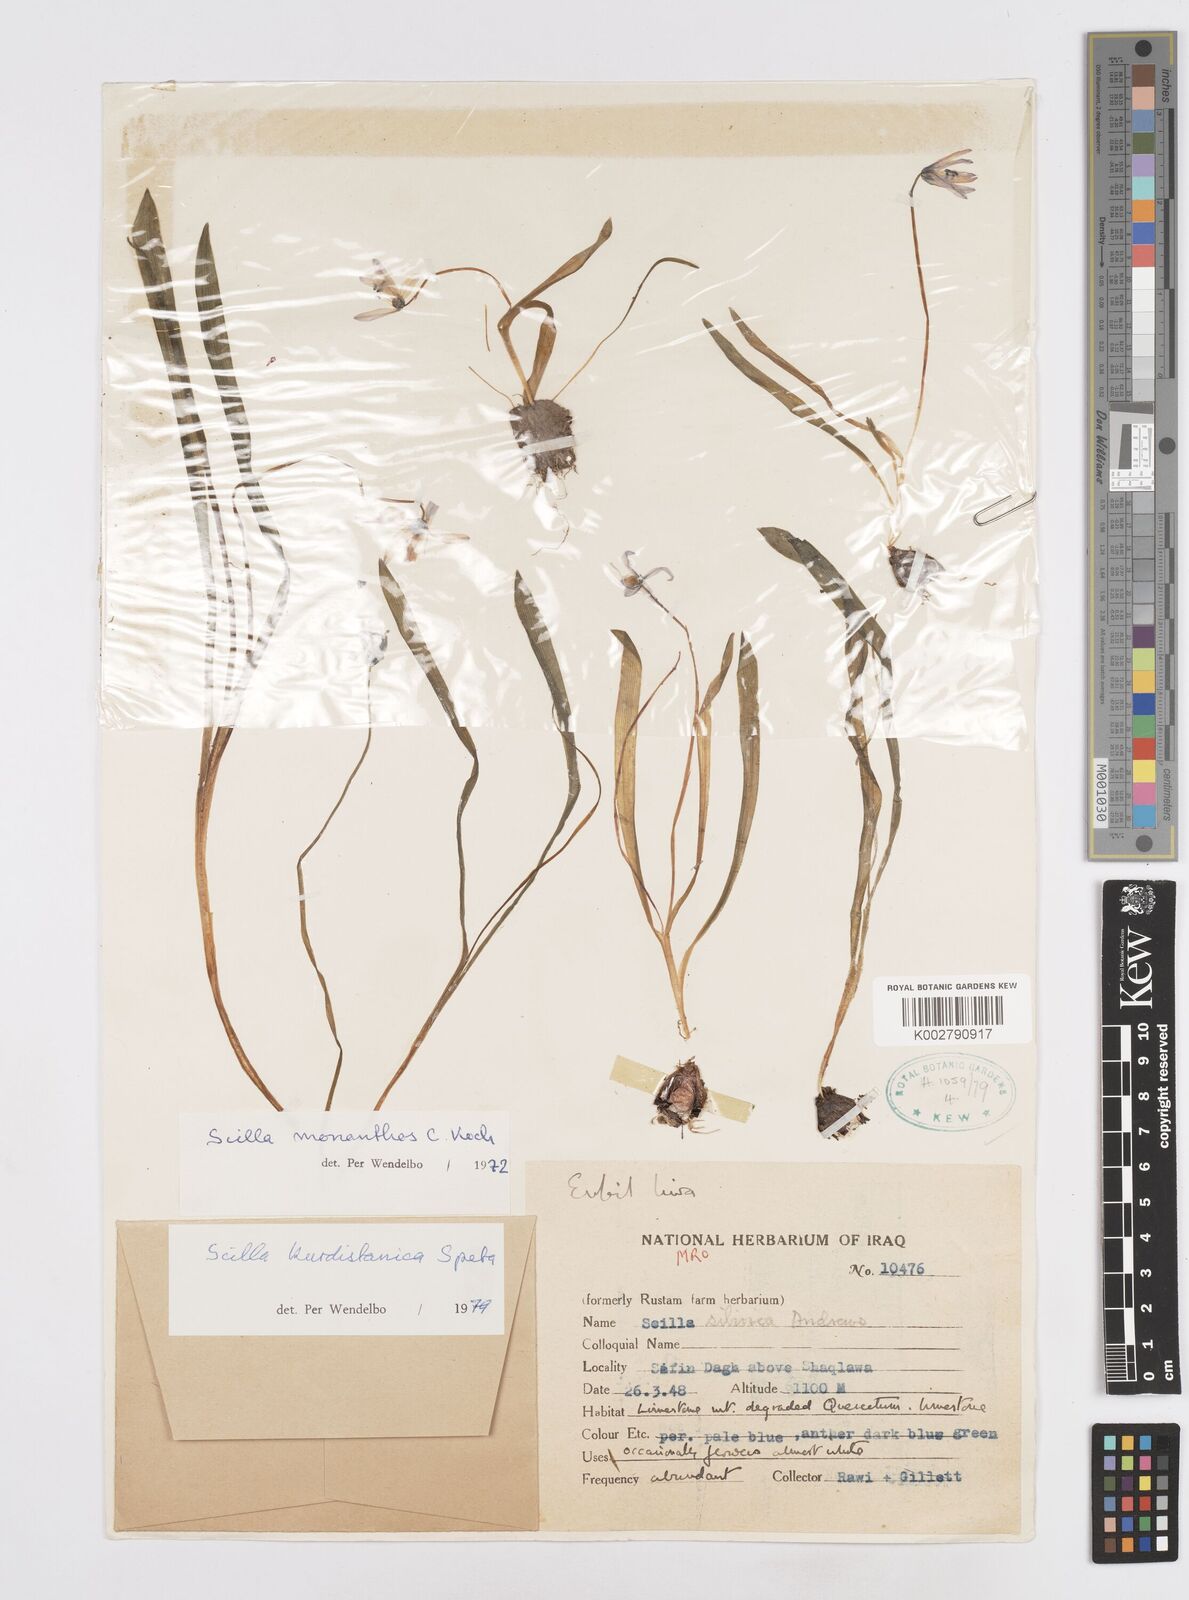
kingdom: Plantae
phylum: Tracheophyta
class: Liliopsida
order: Asparagales
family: Asparagaceae
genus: Scilla
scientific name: Scilla kurdistanica
